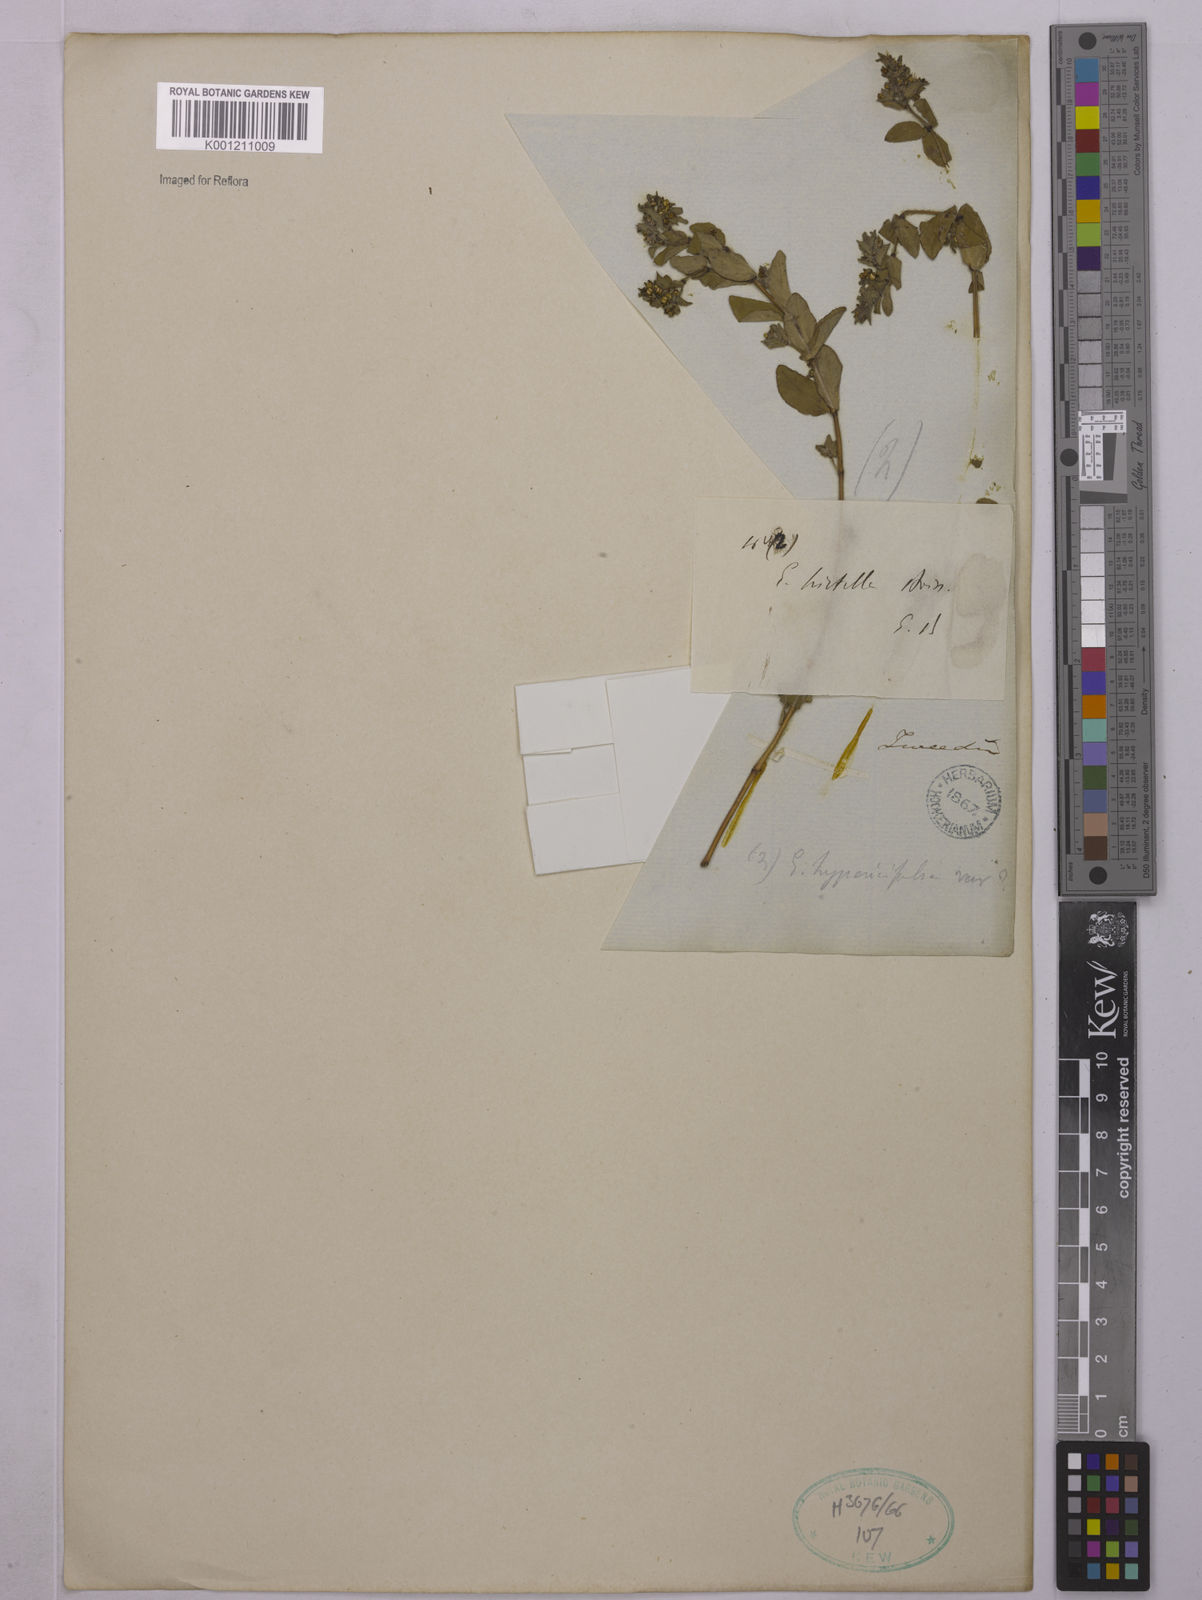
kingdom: Plantae
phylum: Tracheophyta
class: Magnoliopsida
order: Malpighiales
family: Euphorbiaceae
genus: Euphorbia
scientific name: Euphorbia
